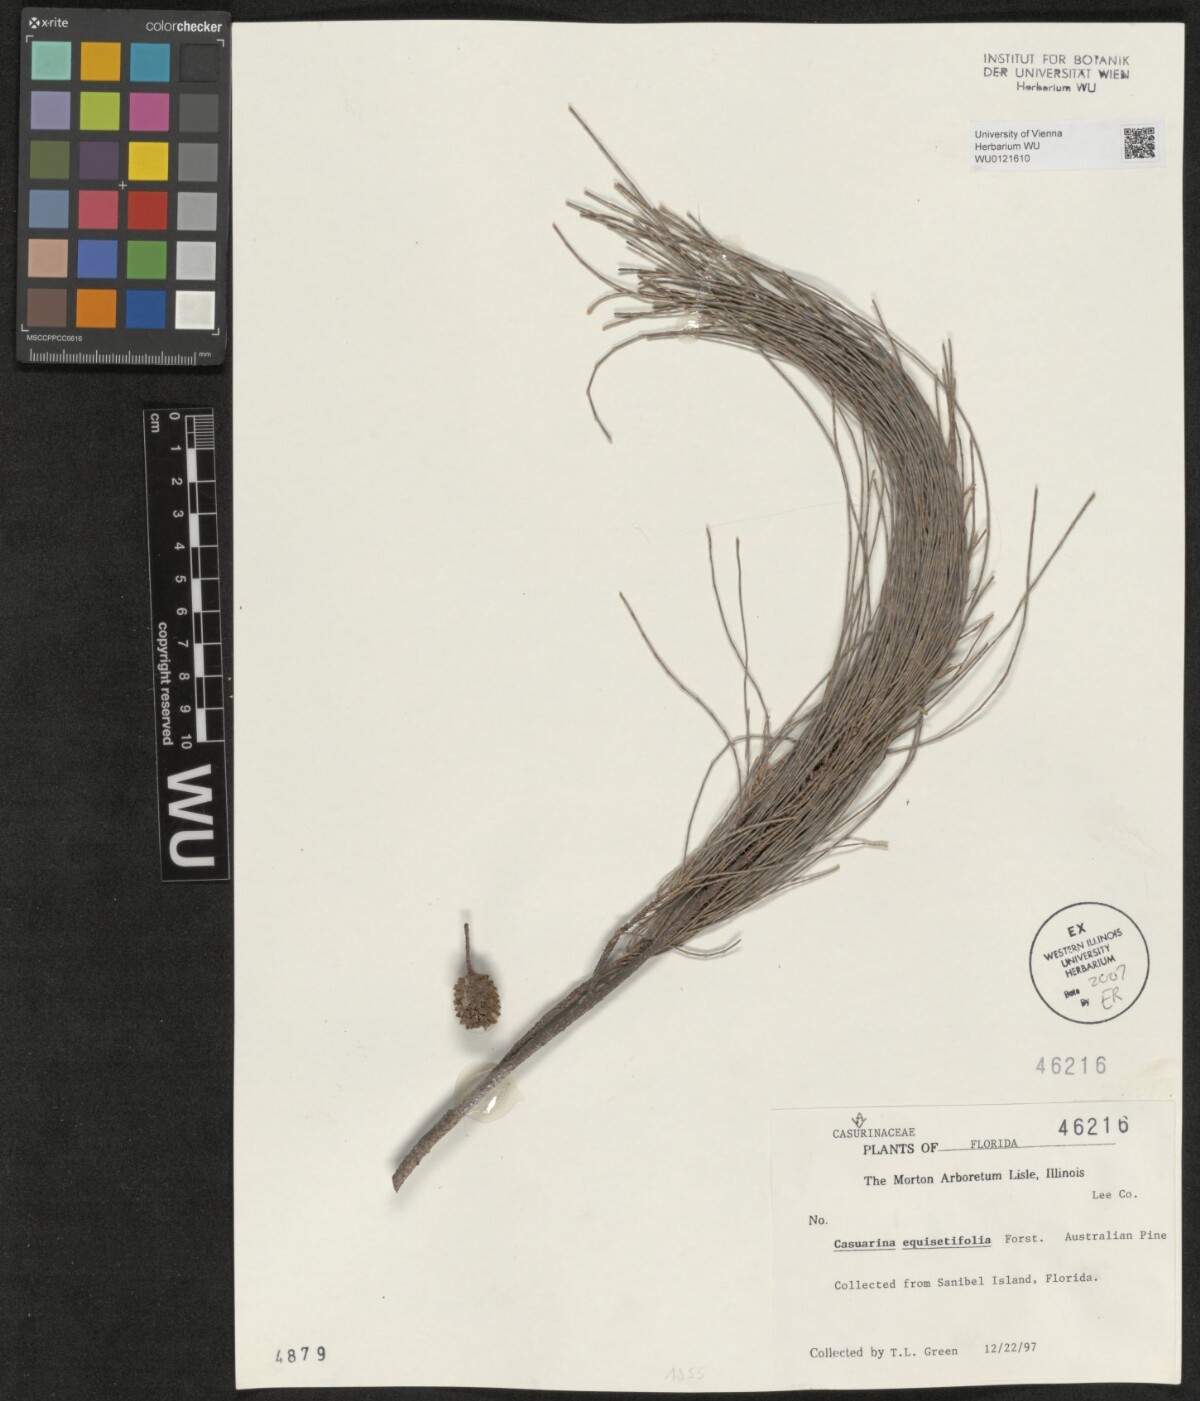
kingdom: Plantae
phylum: Tracheophyta
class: Magnoliopsida
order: Fagales
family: Casuarinaceae
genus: Casuarina
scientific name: Casuarina equisetifolia
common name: Beach sheoak
